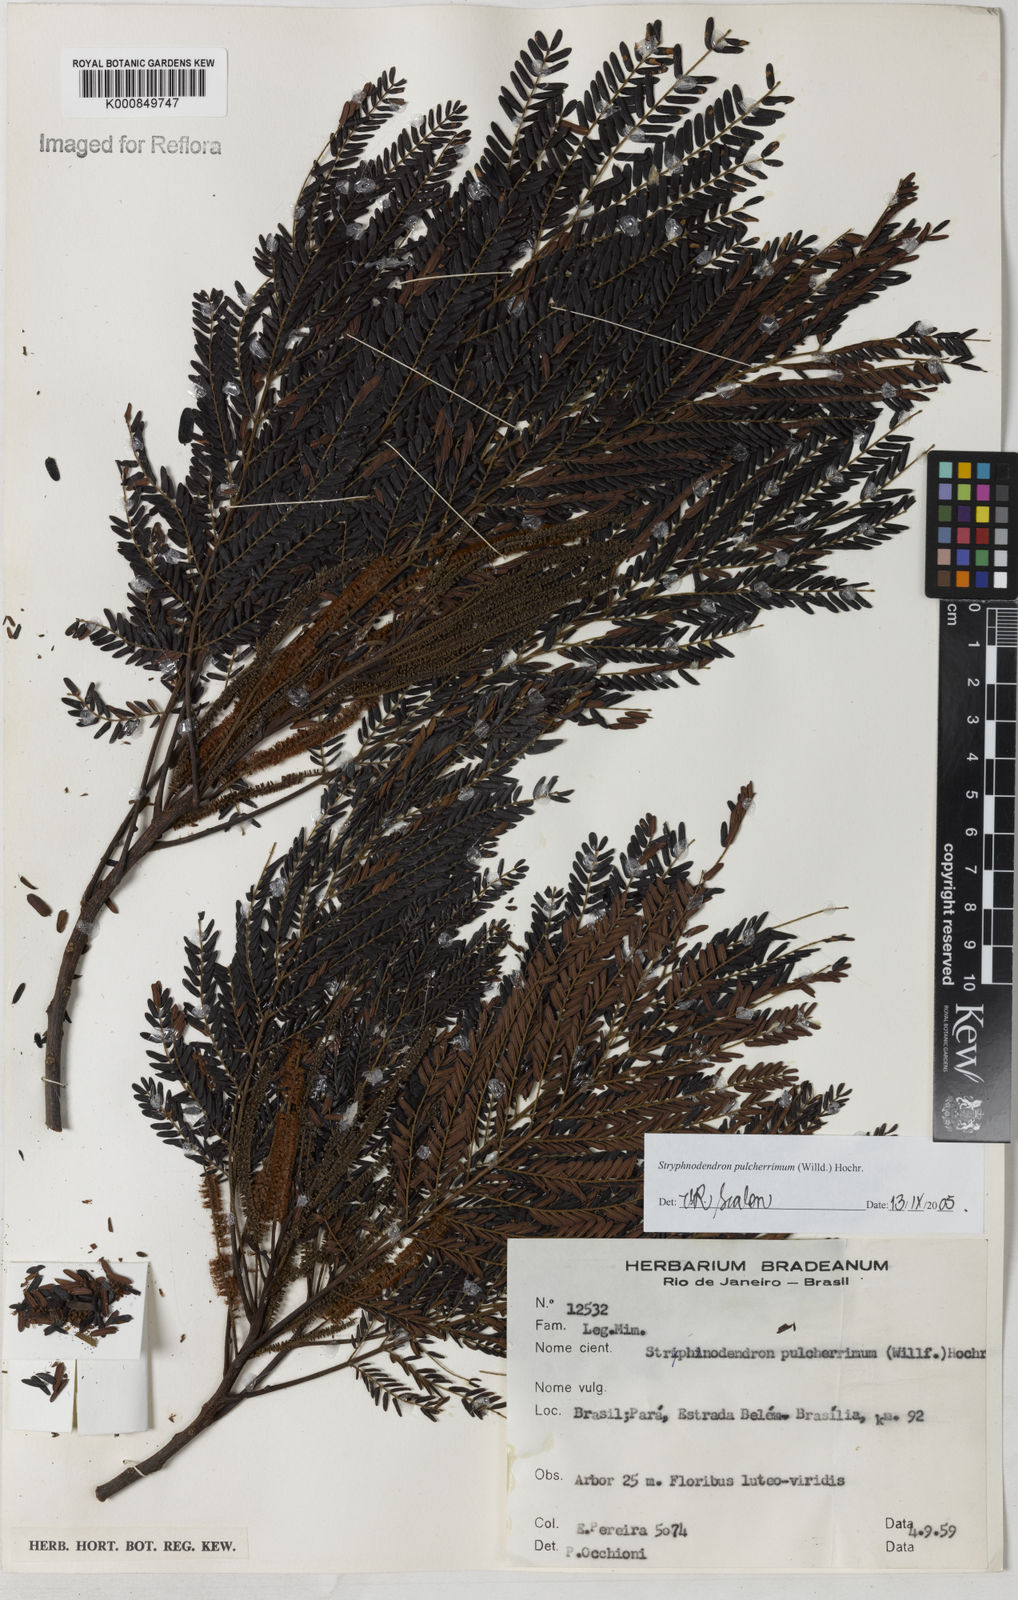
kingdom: Plantae
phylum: Tracheophyta
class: Magnoliopsida
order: Fabales
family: Fabaceae
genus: Stryphnodendron
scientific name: Stryphnodendron pulcherrimum
